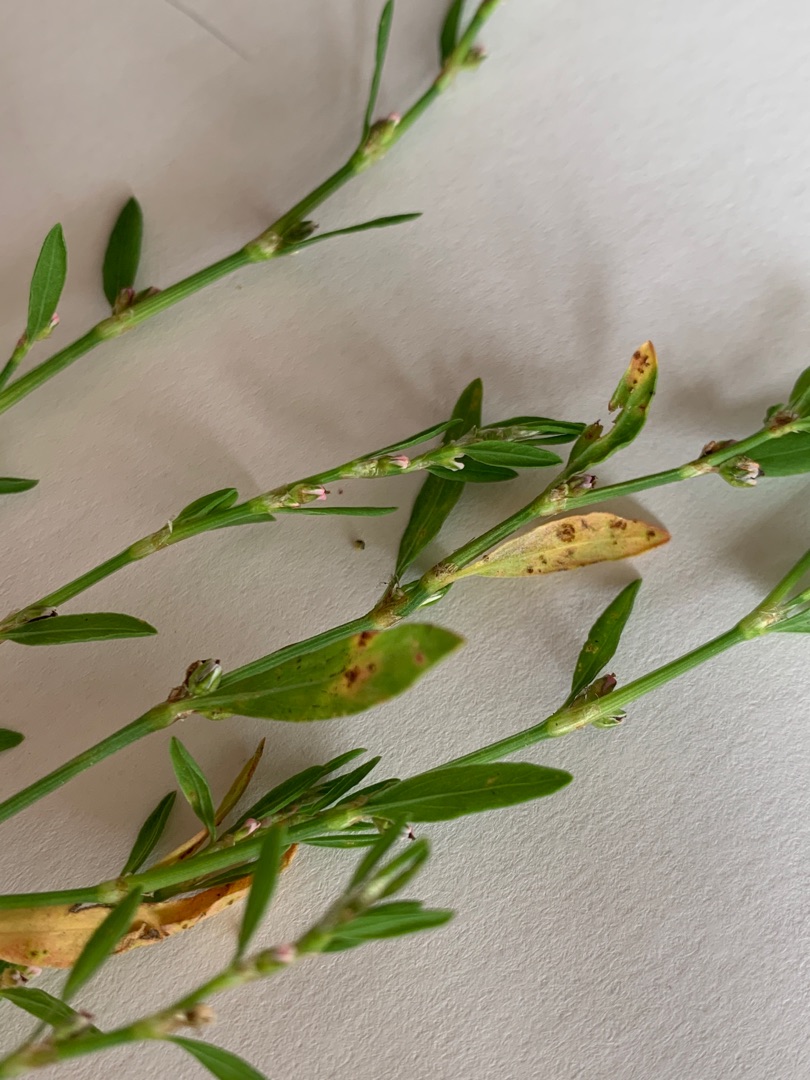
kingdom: Plantae
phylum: Tracheophyta
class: Magnoliopsida
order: Caryophyllales
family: Polygonaceae
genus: Polygonum
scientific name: Polygonum aviculare
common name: Vej-pileurt
